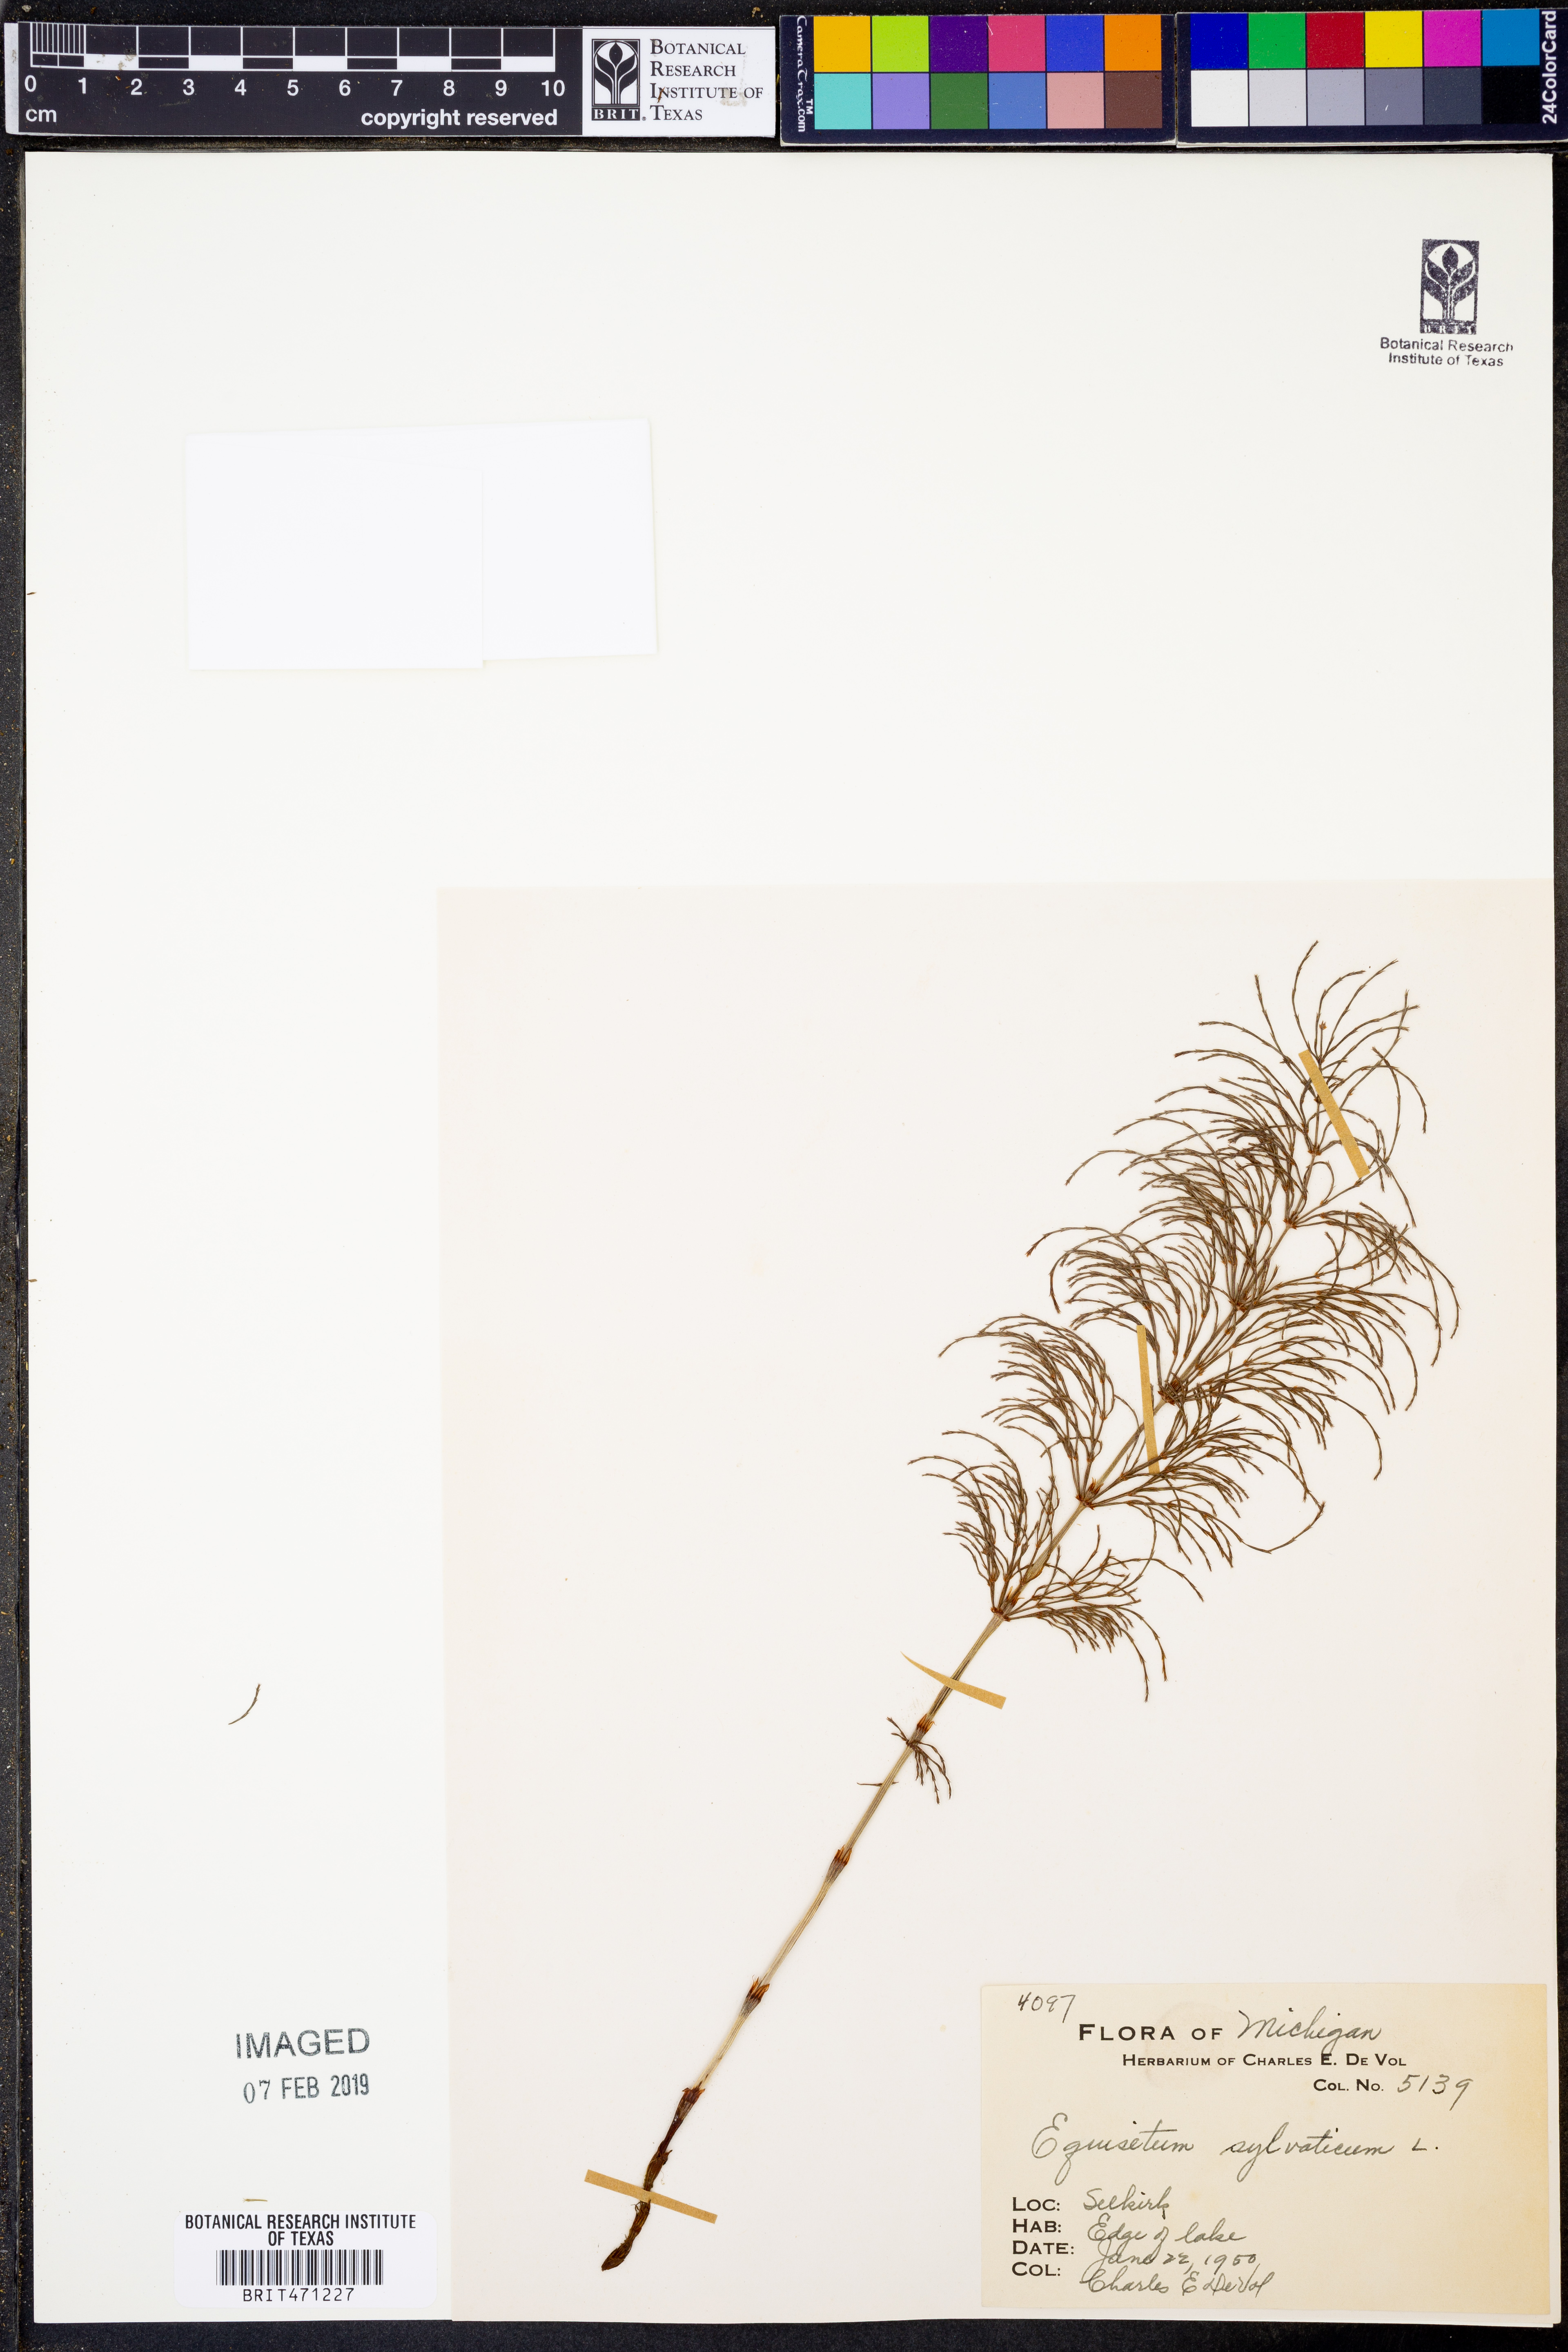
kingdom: Plantae
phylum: Tracheophyta
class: Polypodiopsida
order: Equisetales
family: Equisetaceae
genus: Equisetum
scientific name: Equisetum sylvaticum
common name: Wood horsetail
